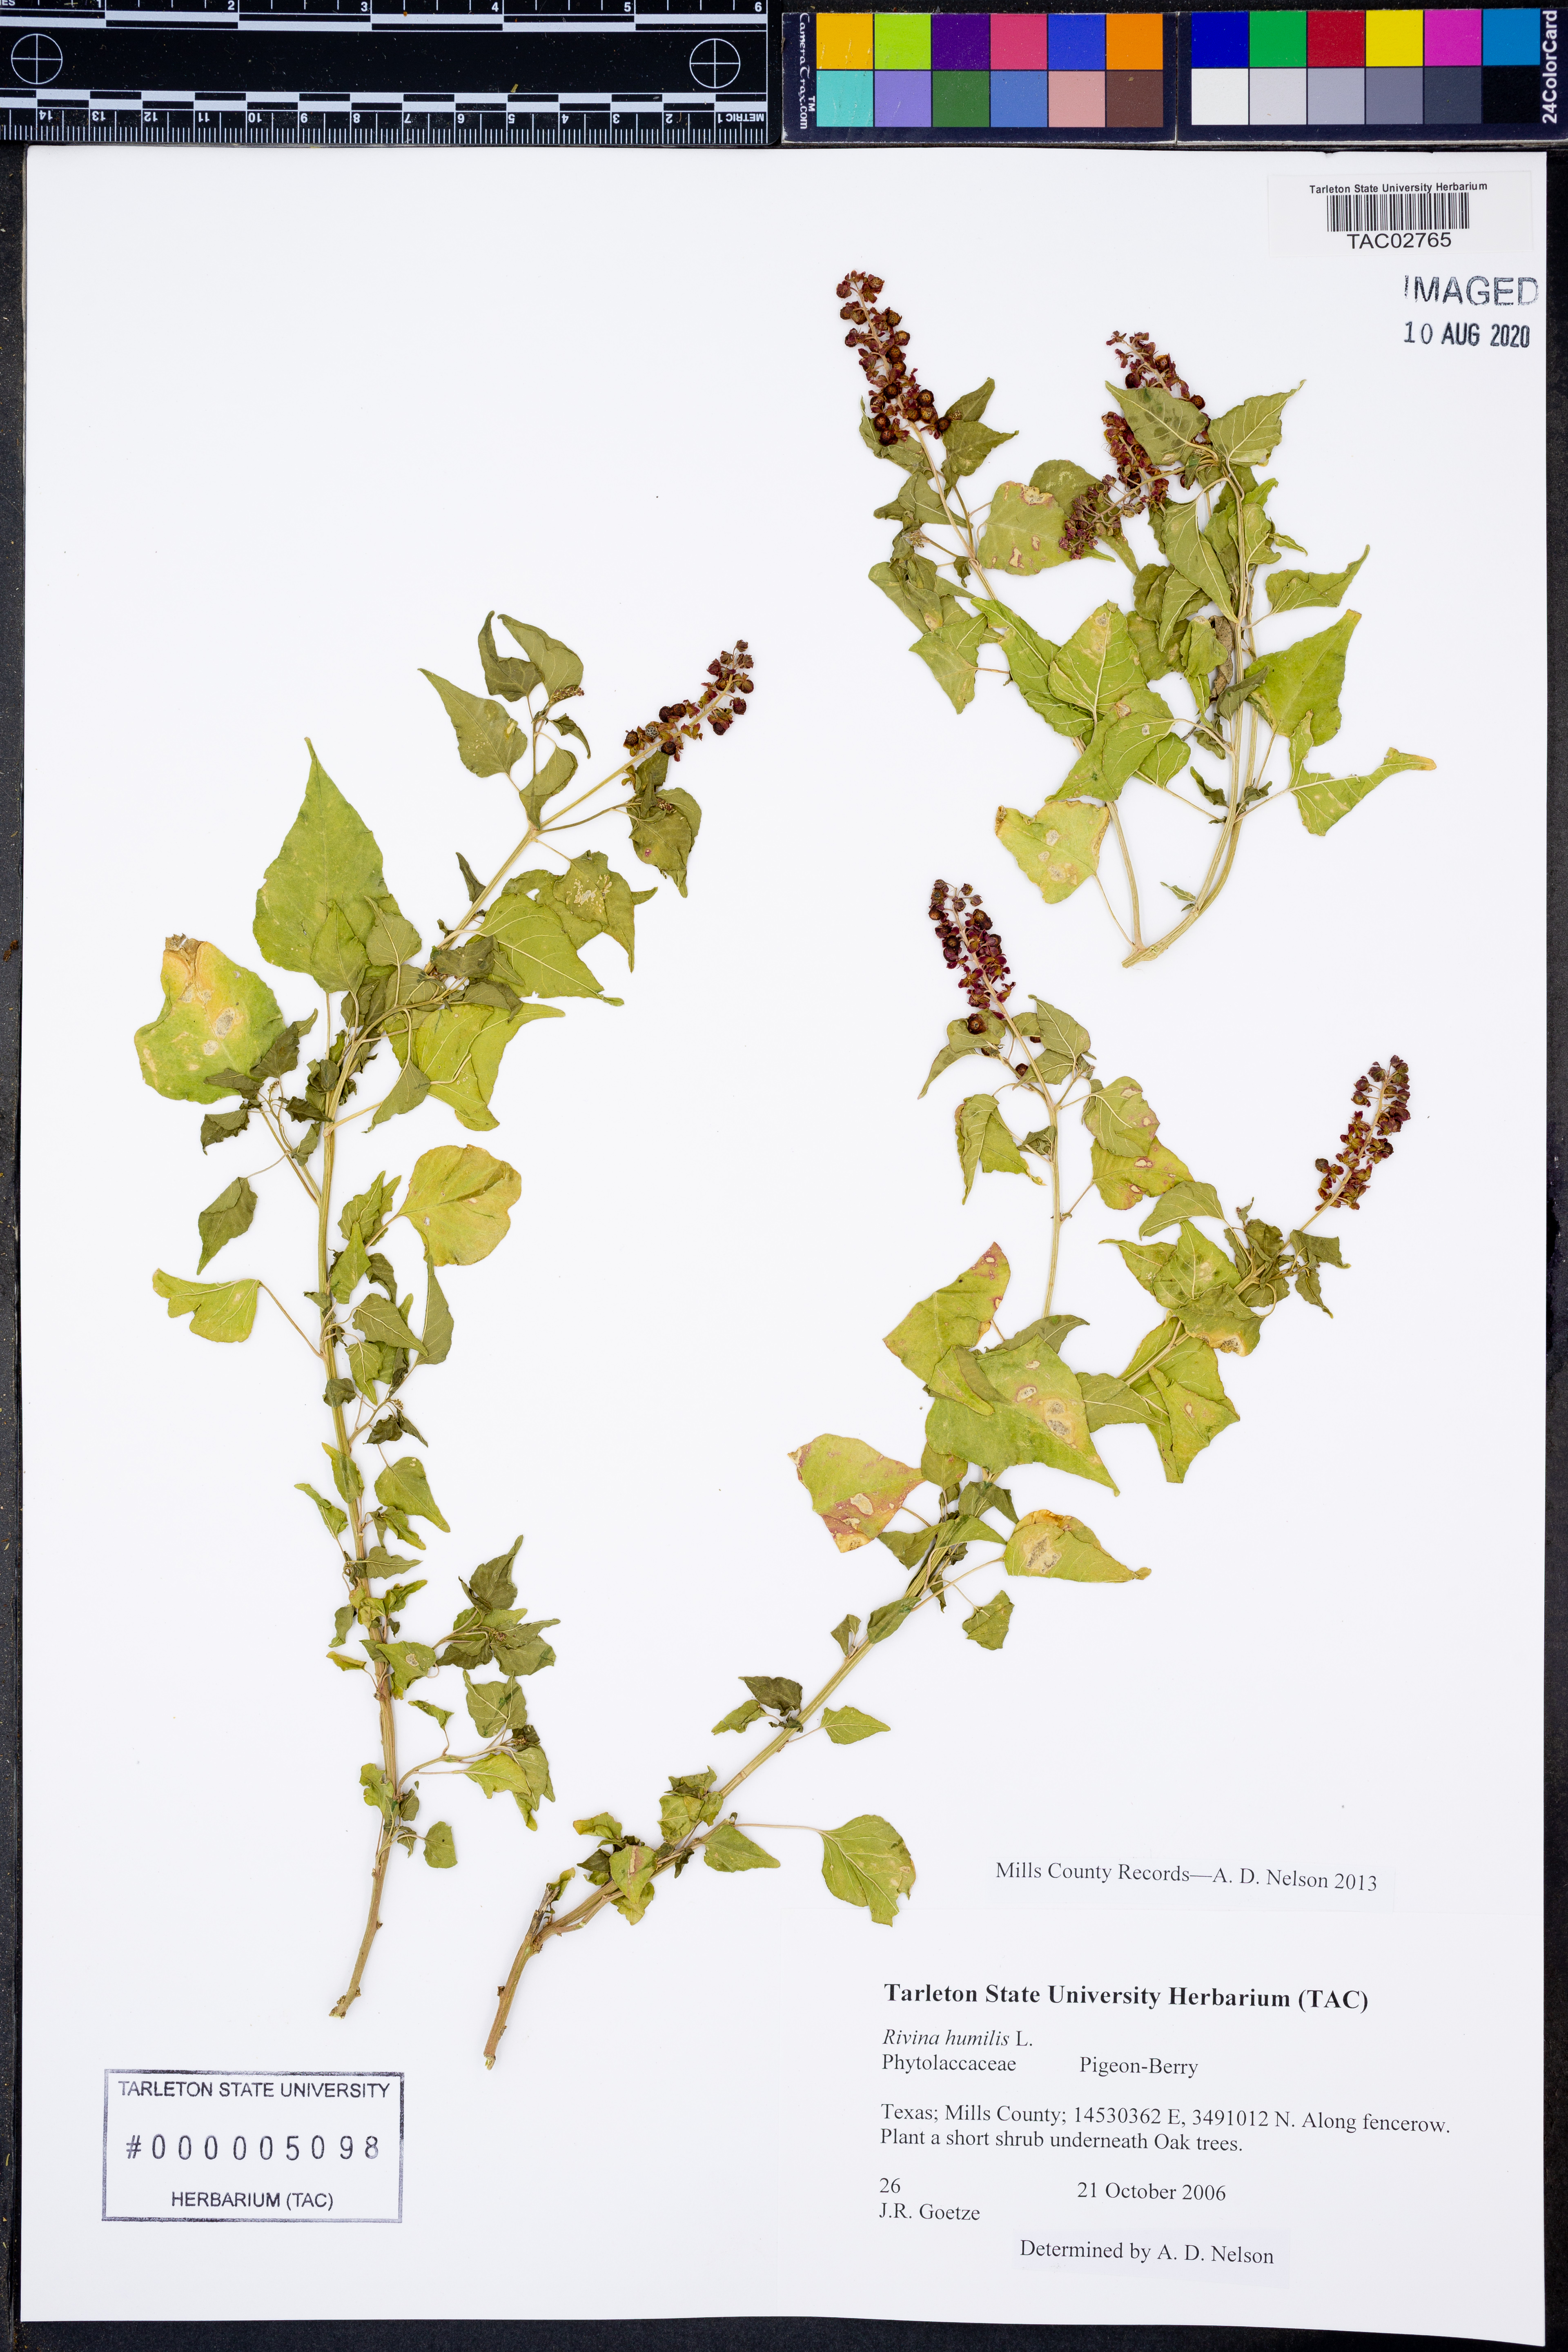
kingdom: Plantae
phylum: Tracheophyta
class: Magnoliopsida
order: Caryophyllales
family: Phytolaccaceae
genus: Rivina
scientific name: Rivina humilis
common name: Rougeplant
